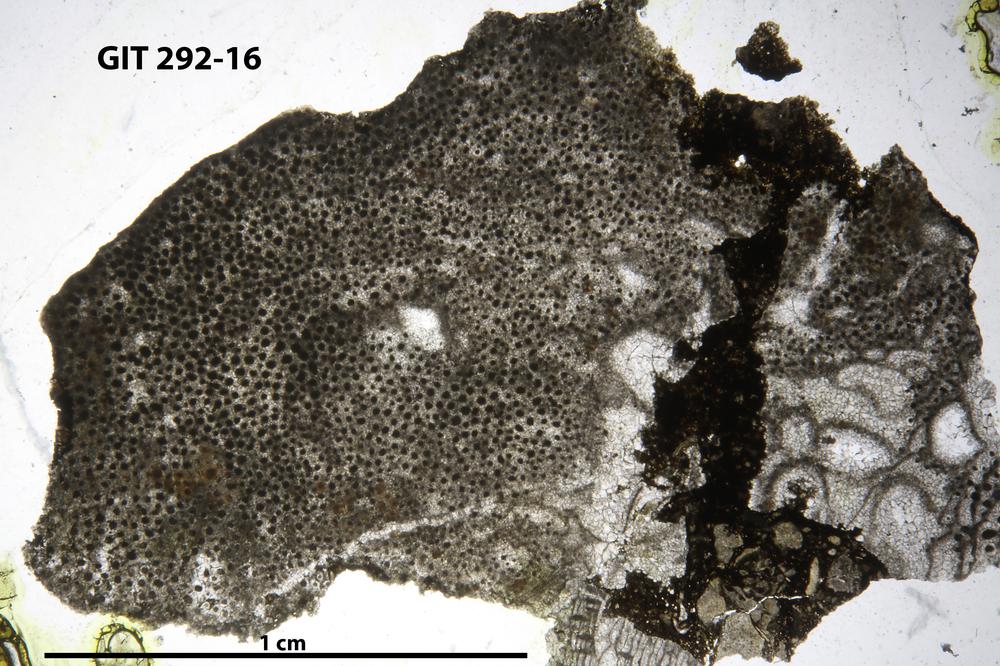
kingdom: Animalia
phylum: Porifera
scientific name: Porifera
